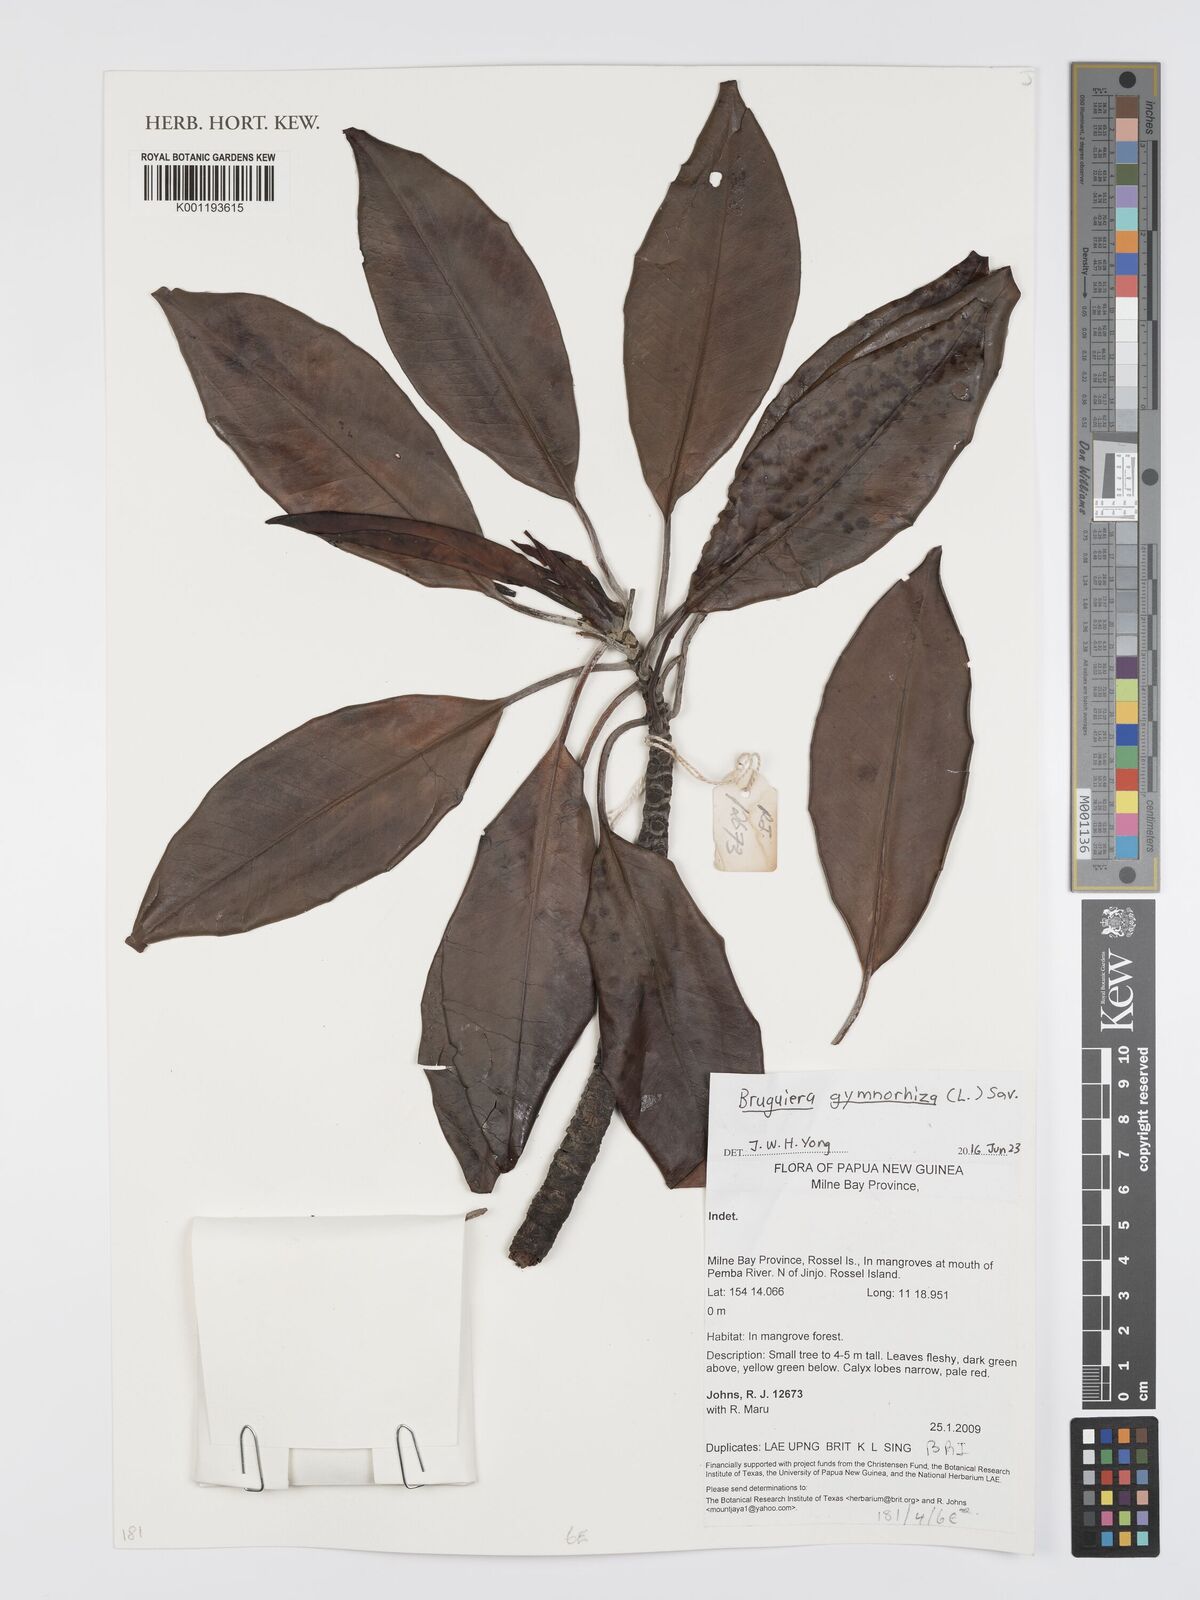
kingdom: Plantae
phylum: Tracheophyta
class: Magnoliopsida
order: Malpighiales
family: Rhizophoraceae
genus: Bruguiera
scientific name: Bruguiera
